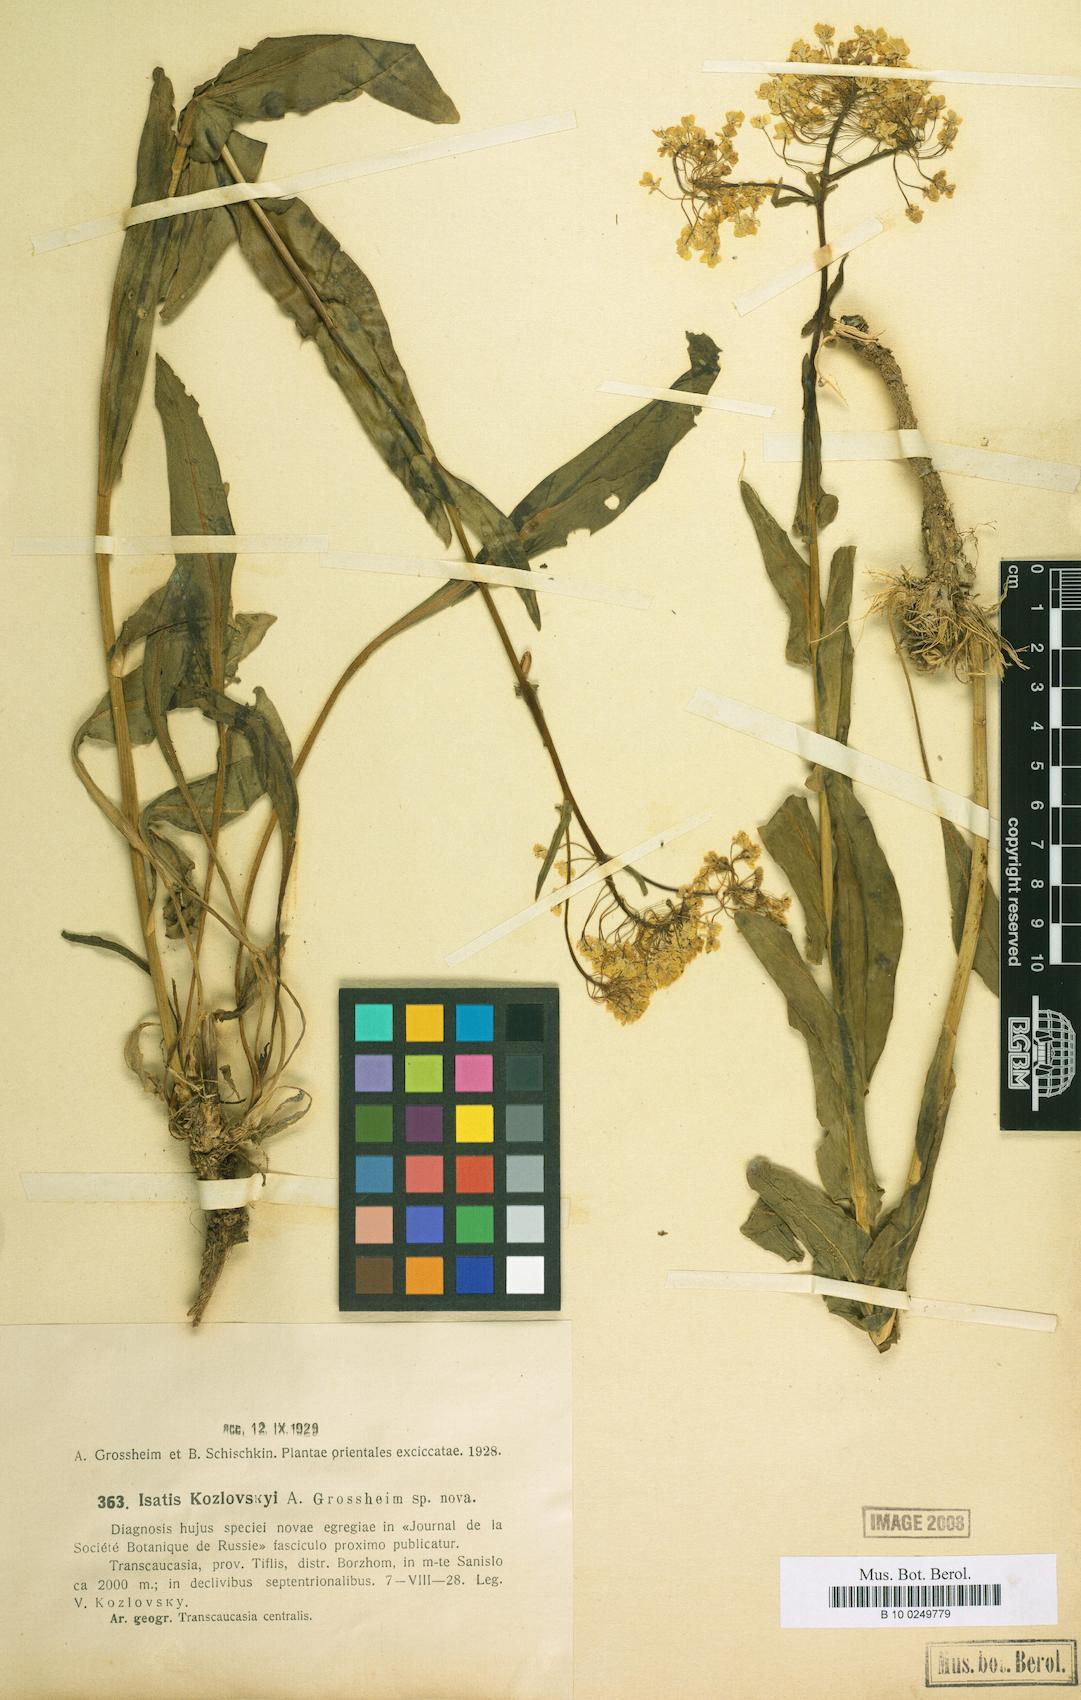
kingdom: Plantae
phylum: Tracheophyta
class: Magnoliopsida
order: Brassicales
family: Brassicaceae
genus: Isatis
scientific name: Isatis kozlowskyi
